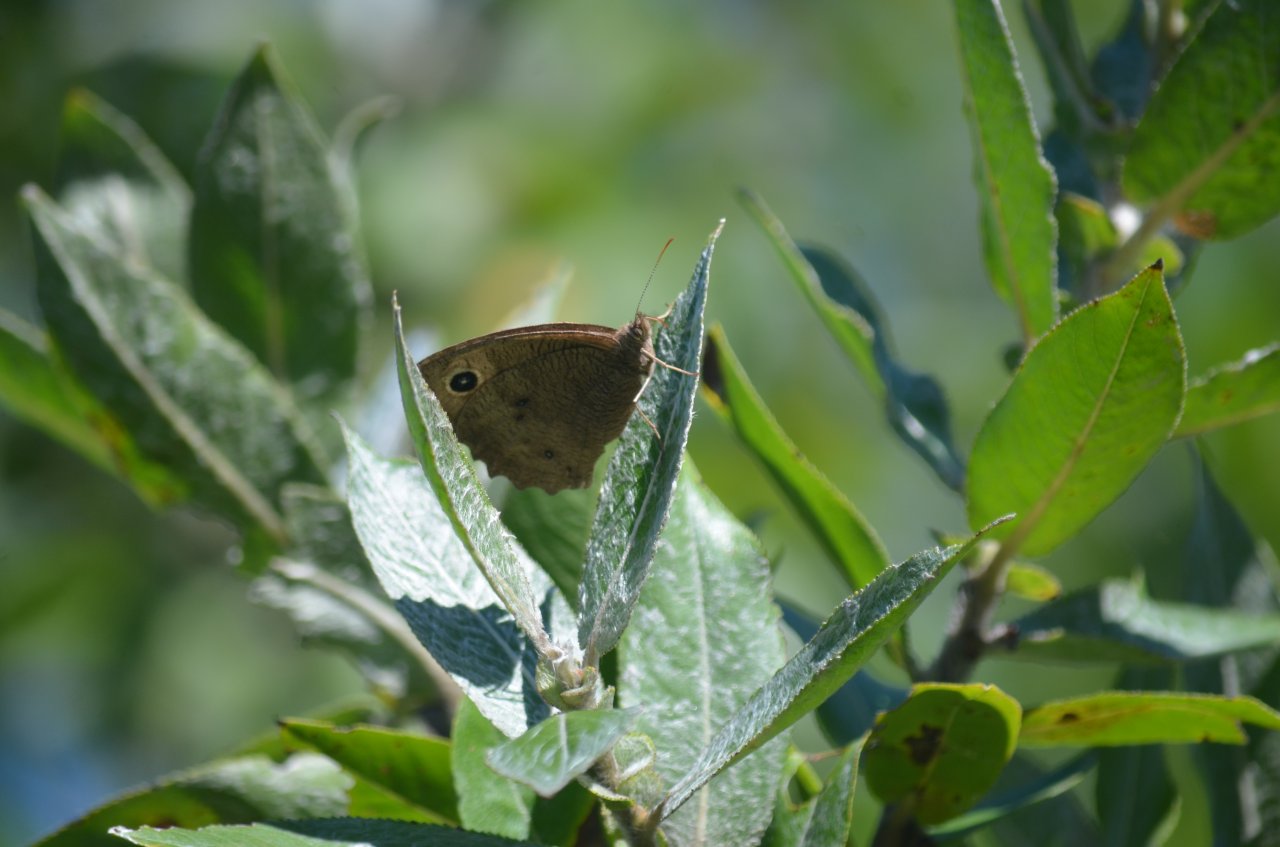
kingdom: Animalia
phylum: Arthropoda
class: Insecta
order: Lepidoptera
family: Nymphalidae
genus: Cercyonis
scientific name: Cercyonis pegala
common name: Common Wood-Nymph
